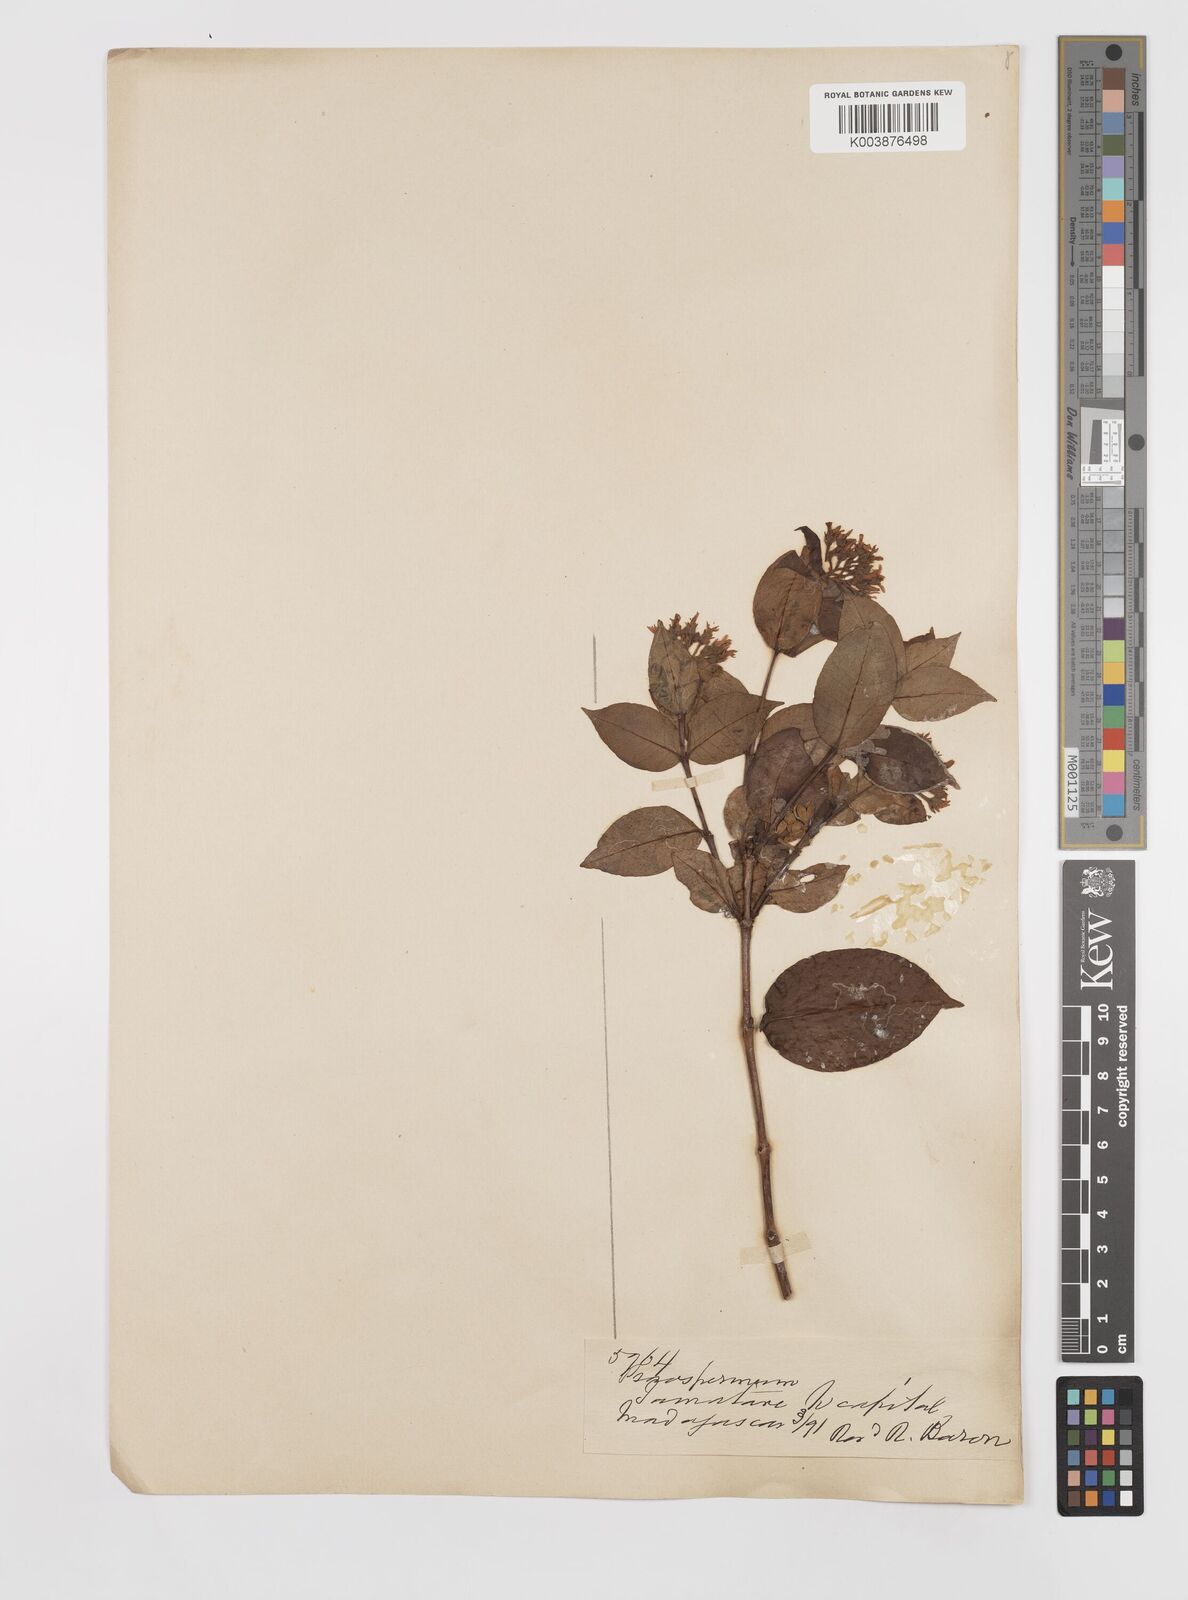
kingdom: Plantae
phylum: Tracheophyta
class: Magnoliopsida
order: Malpighiales
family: Hypericaceae
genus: Psorospermum
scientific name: Psorospermum
